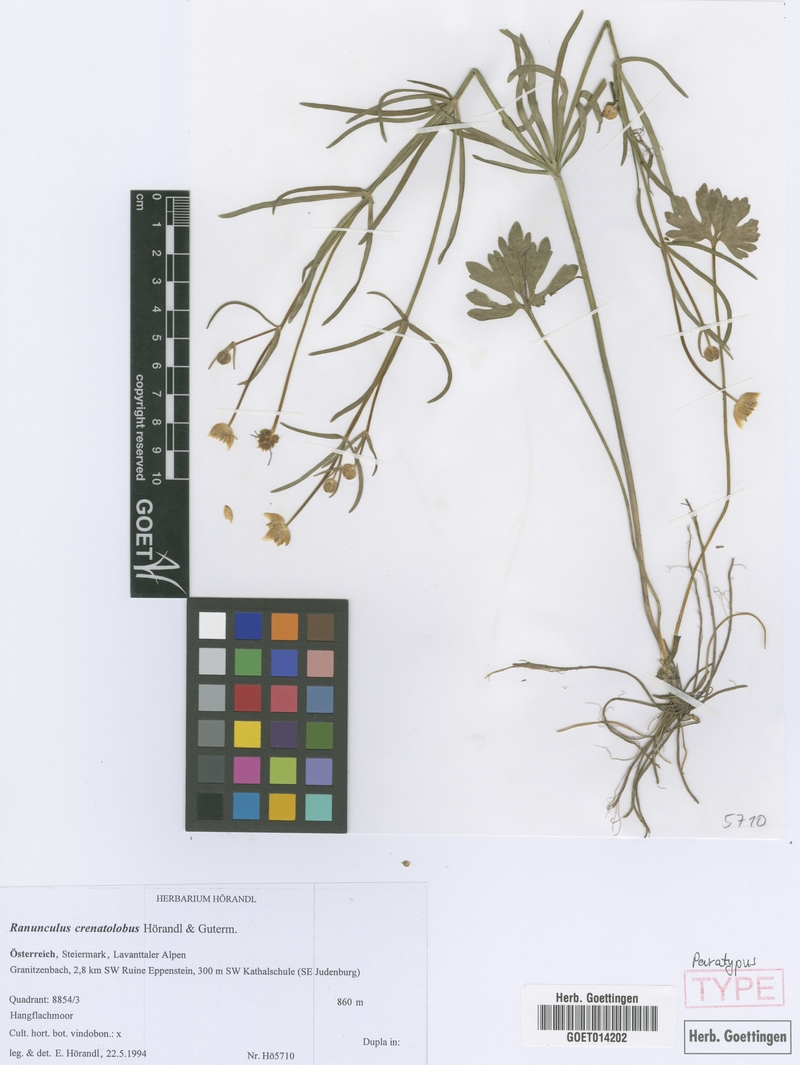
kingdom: Plantae
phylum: Tracheophyta
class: Magnoliopsida
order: Ranunculales
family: Ranunculaceae
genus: Ranunculus
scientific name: Ranunculus crenatolobus
